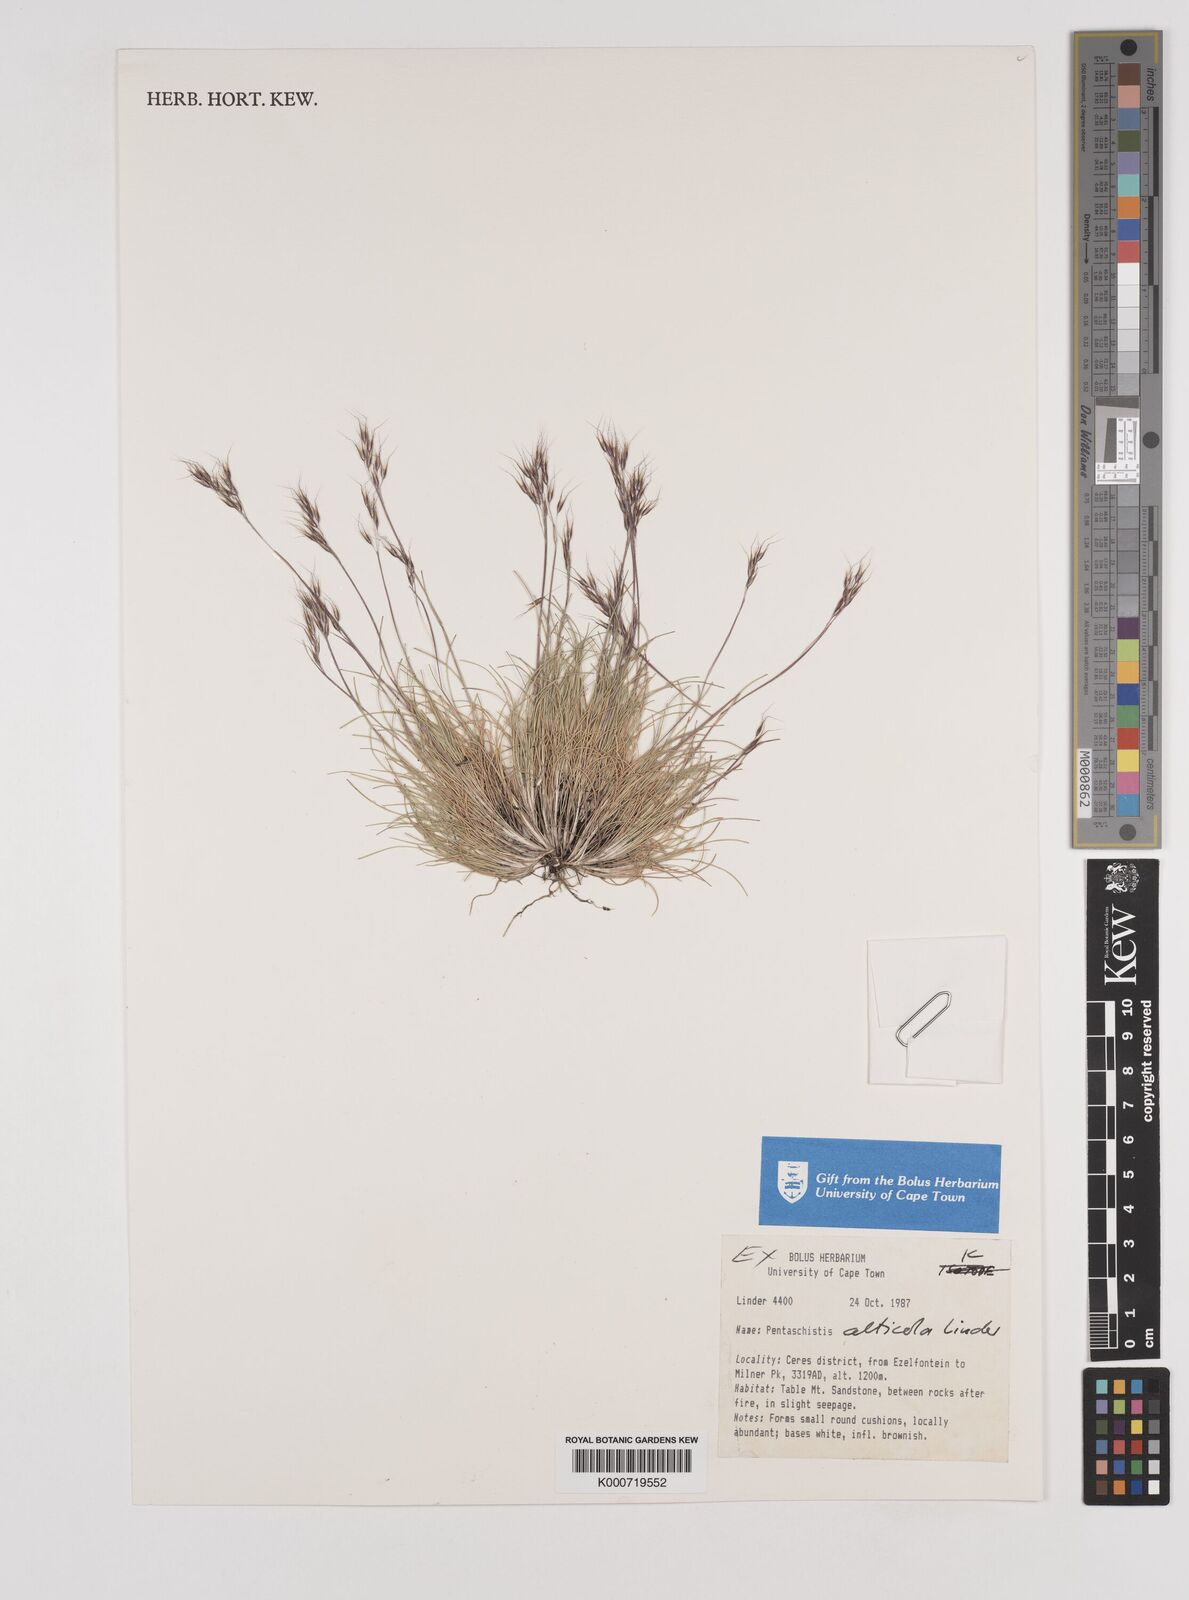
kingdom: Plantae
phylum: Tracheophyta
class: Liliopsida
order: Poales
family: Poaceae
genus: Pentameris
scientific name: Pentameris alticola
